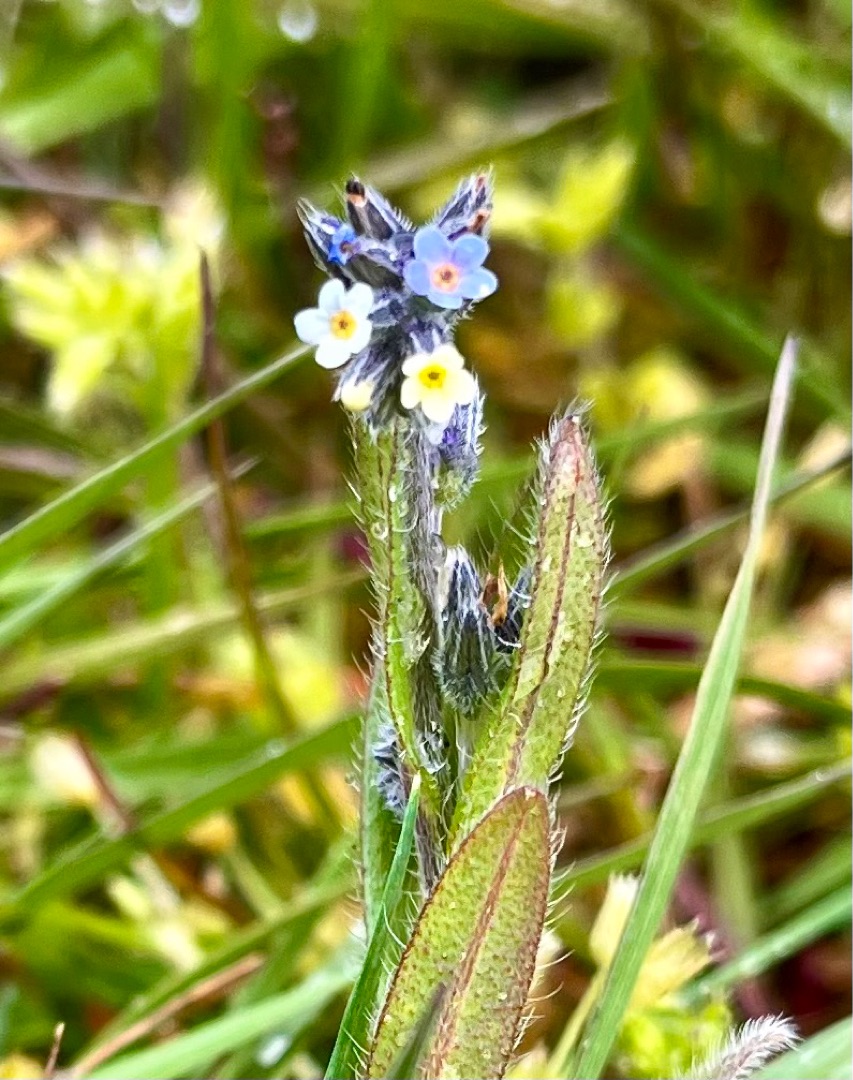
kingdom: Plantae
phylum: Tracheophyta
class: Magnoliopsida
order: Boraginales
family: Boraginaceae
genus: Myosotis
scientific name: Myosotis discolor
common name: Forskelligfarvet forglemmigej
